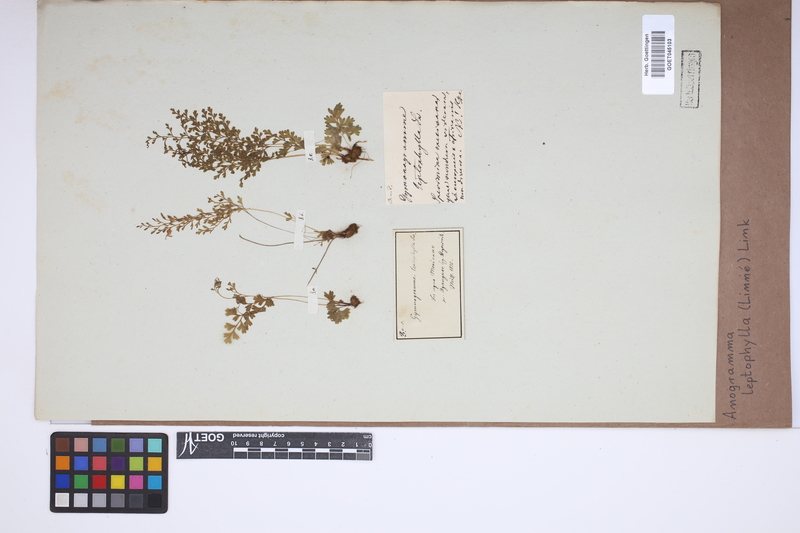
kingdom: Plantae
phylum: Tracheophyta
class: Polypodiopsida
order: Polypodiales
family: Pteridaceae
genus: Anogramma
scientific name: Anogramma leptophylla
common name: Jersey fern
